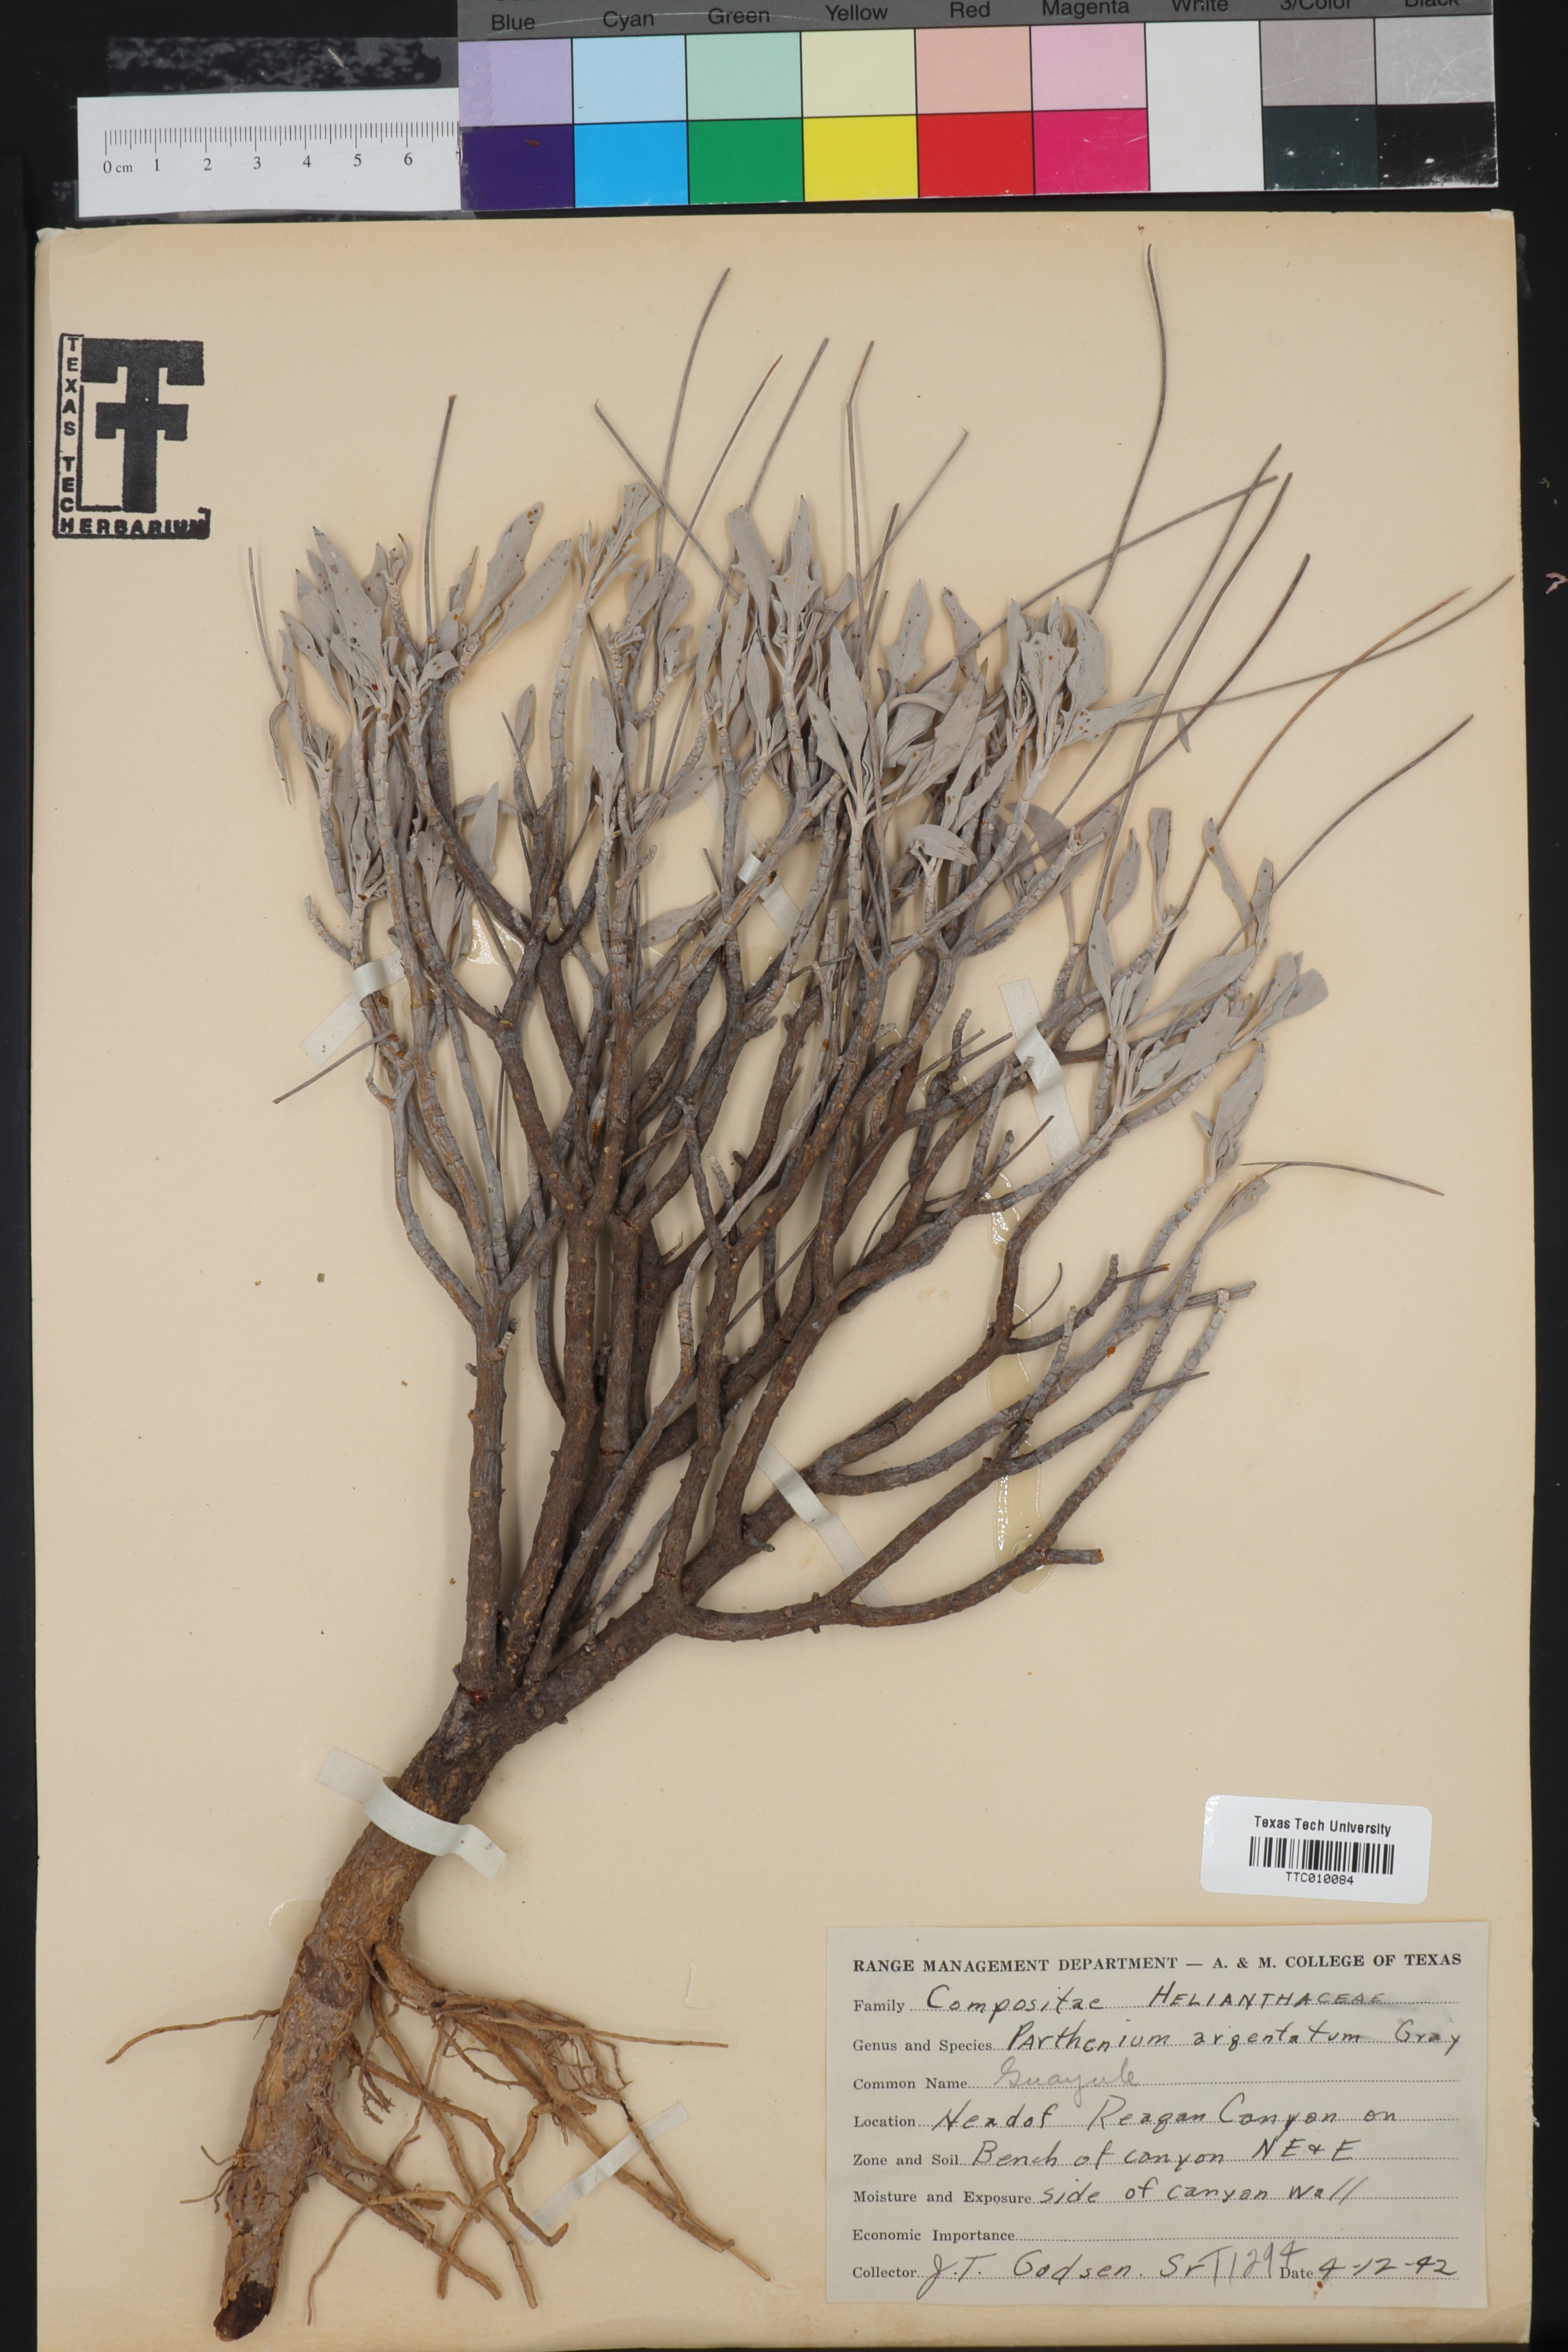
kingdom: Plantae
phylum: Tracheophyta
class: Magnoliopsida
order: Asterales
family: Asteraceae
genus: Parthenium
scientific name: Parthenium argentatum
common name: Guayule
